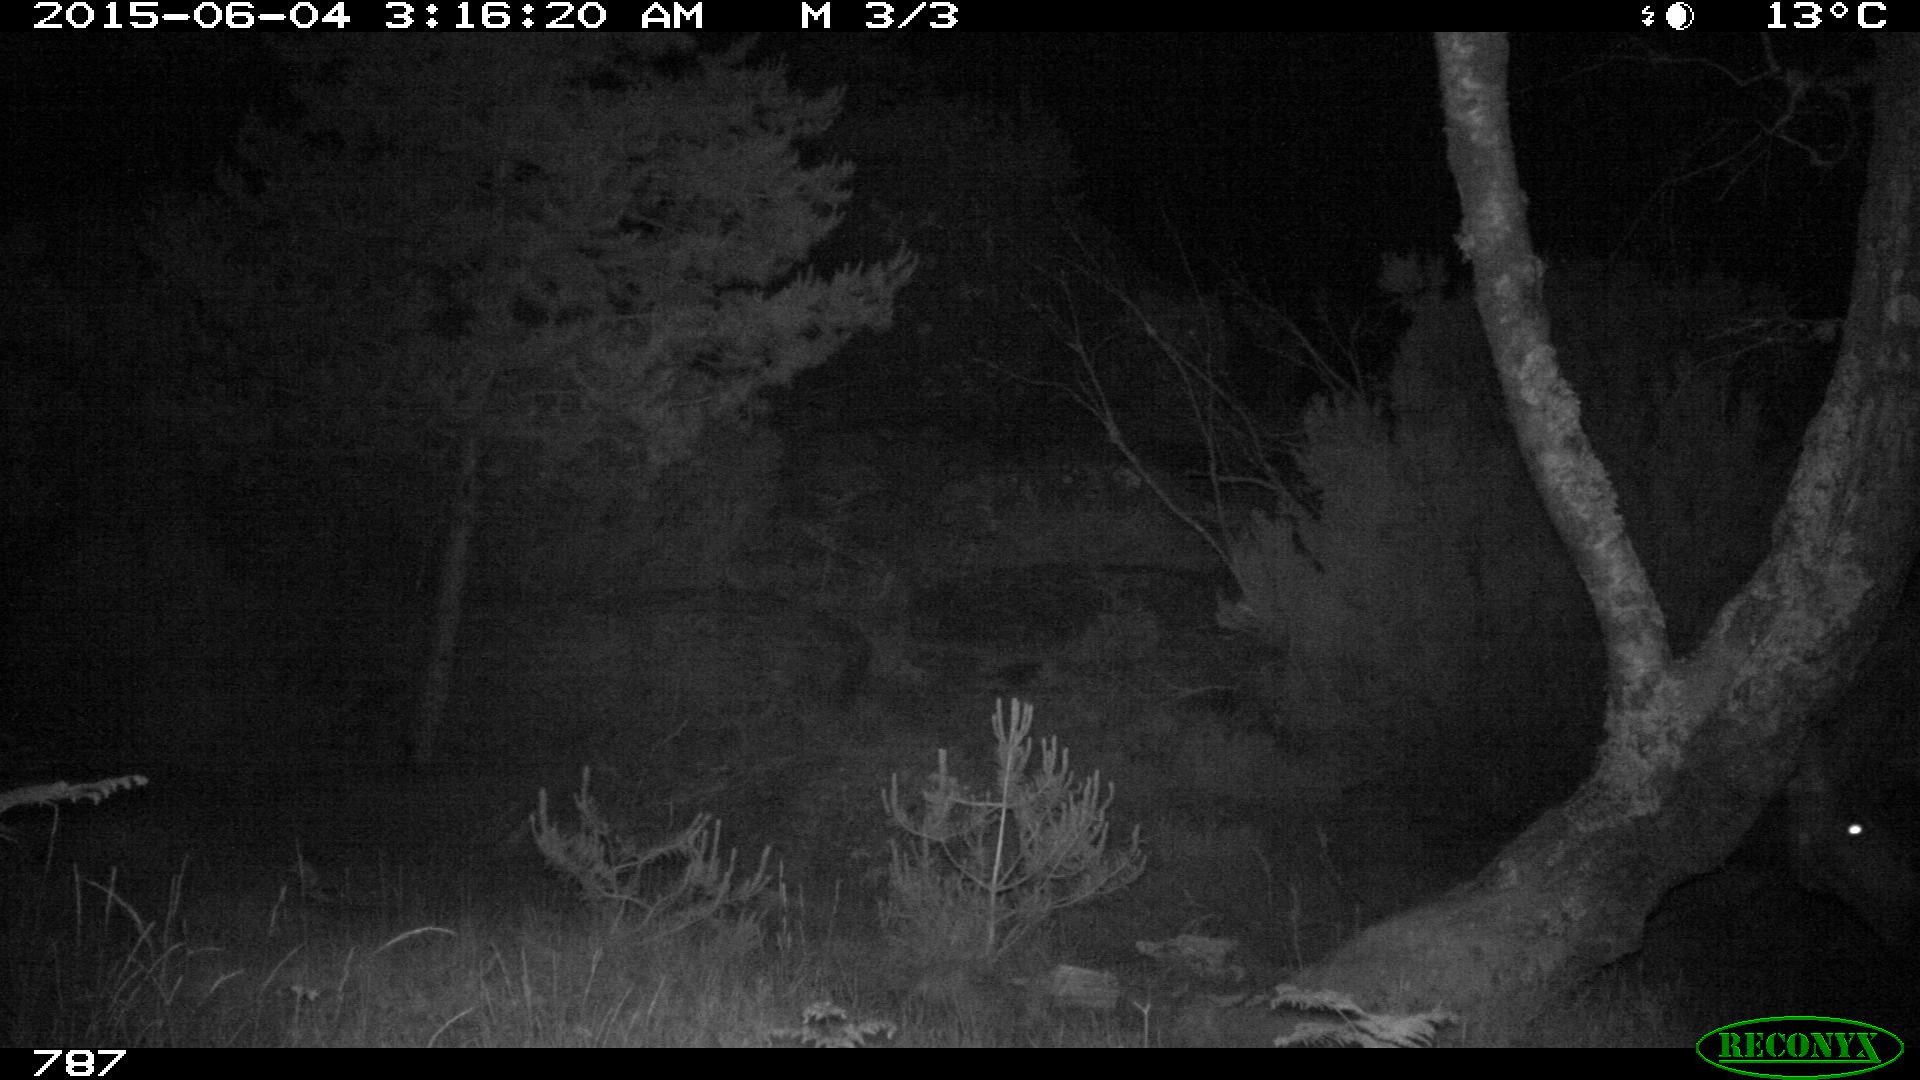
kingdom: Animalia
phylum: Chordata
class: Mammalia
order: Perissodactyla
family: Equidae
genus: Equus
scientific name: Equus caballus
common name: Horse
